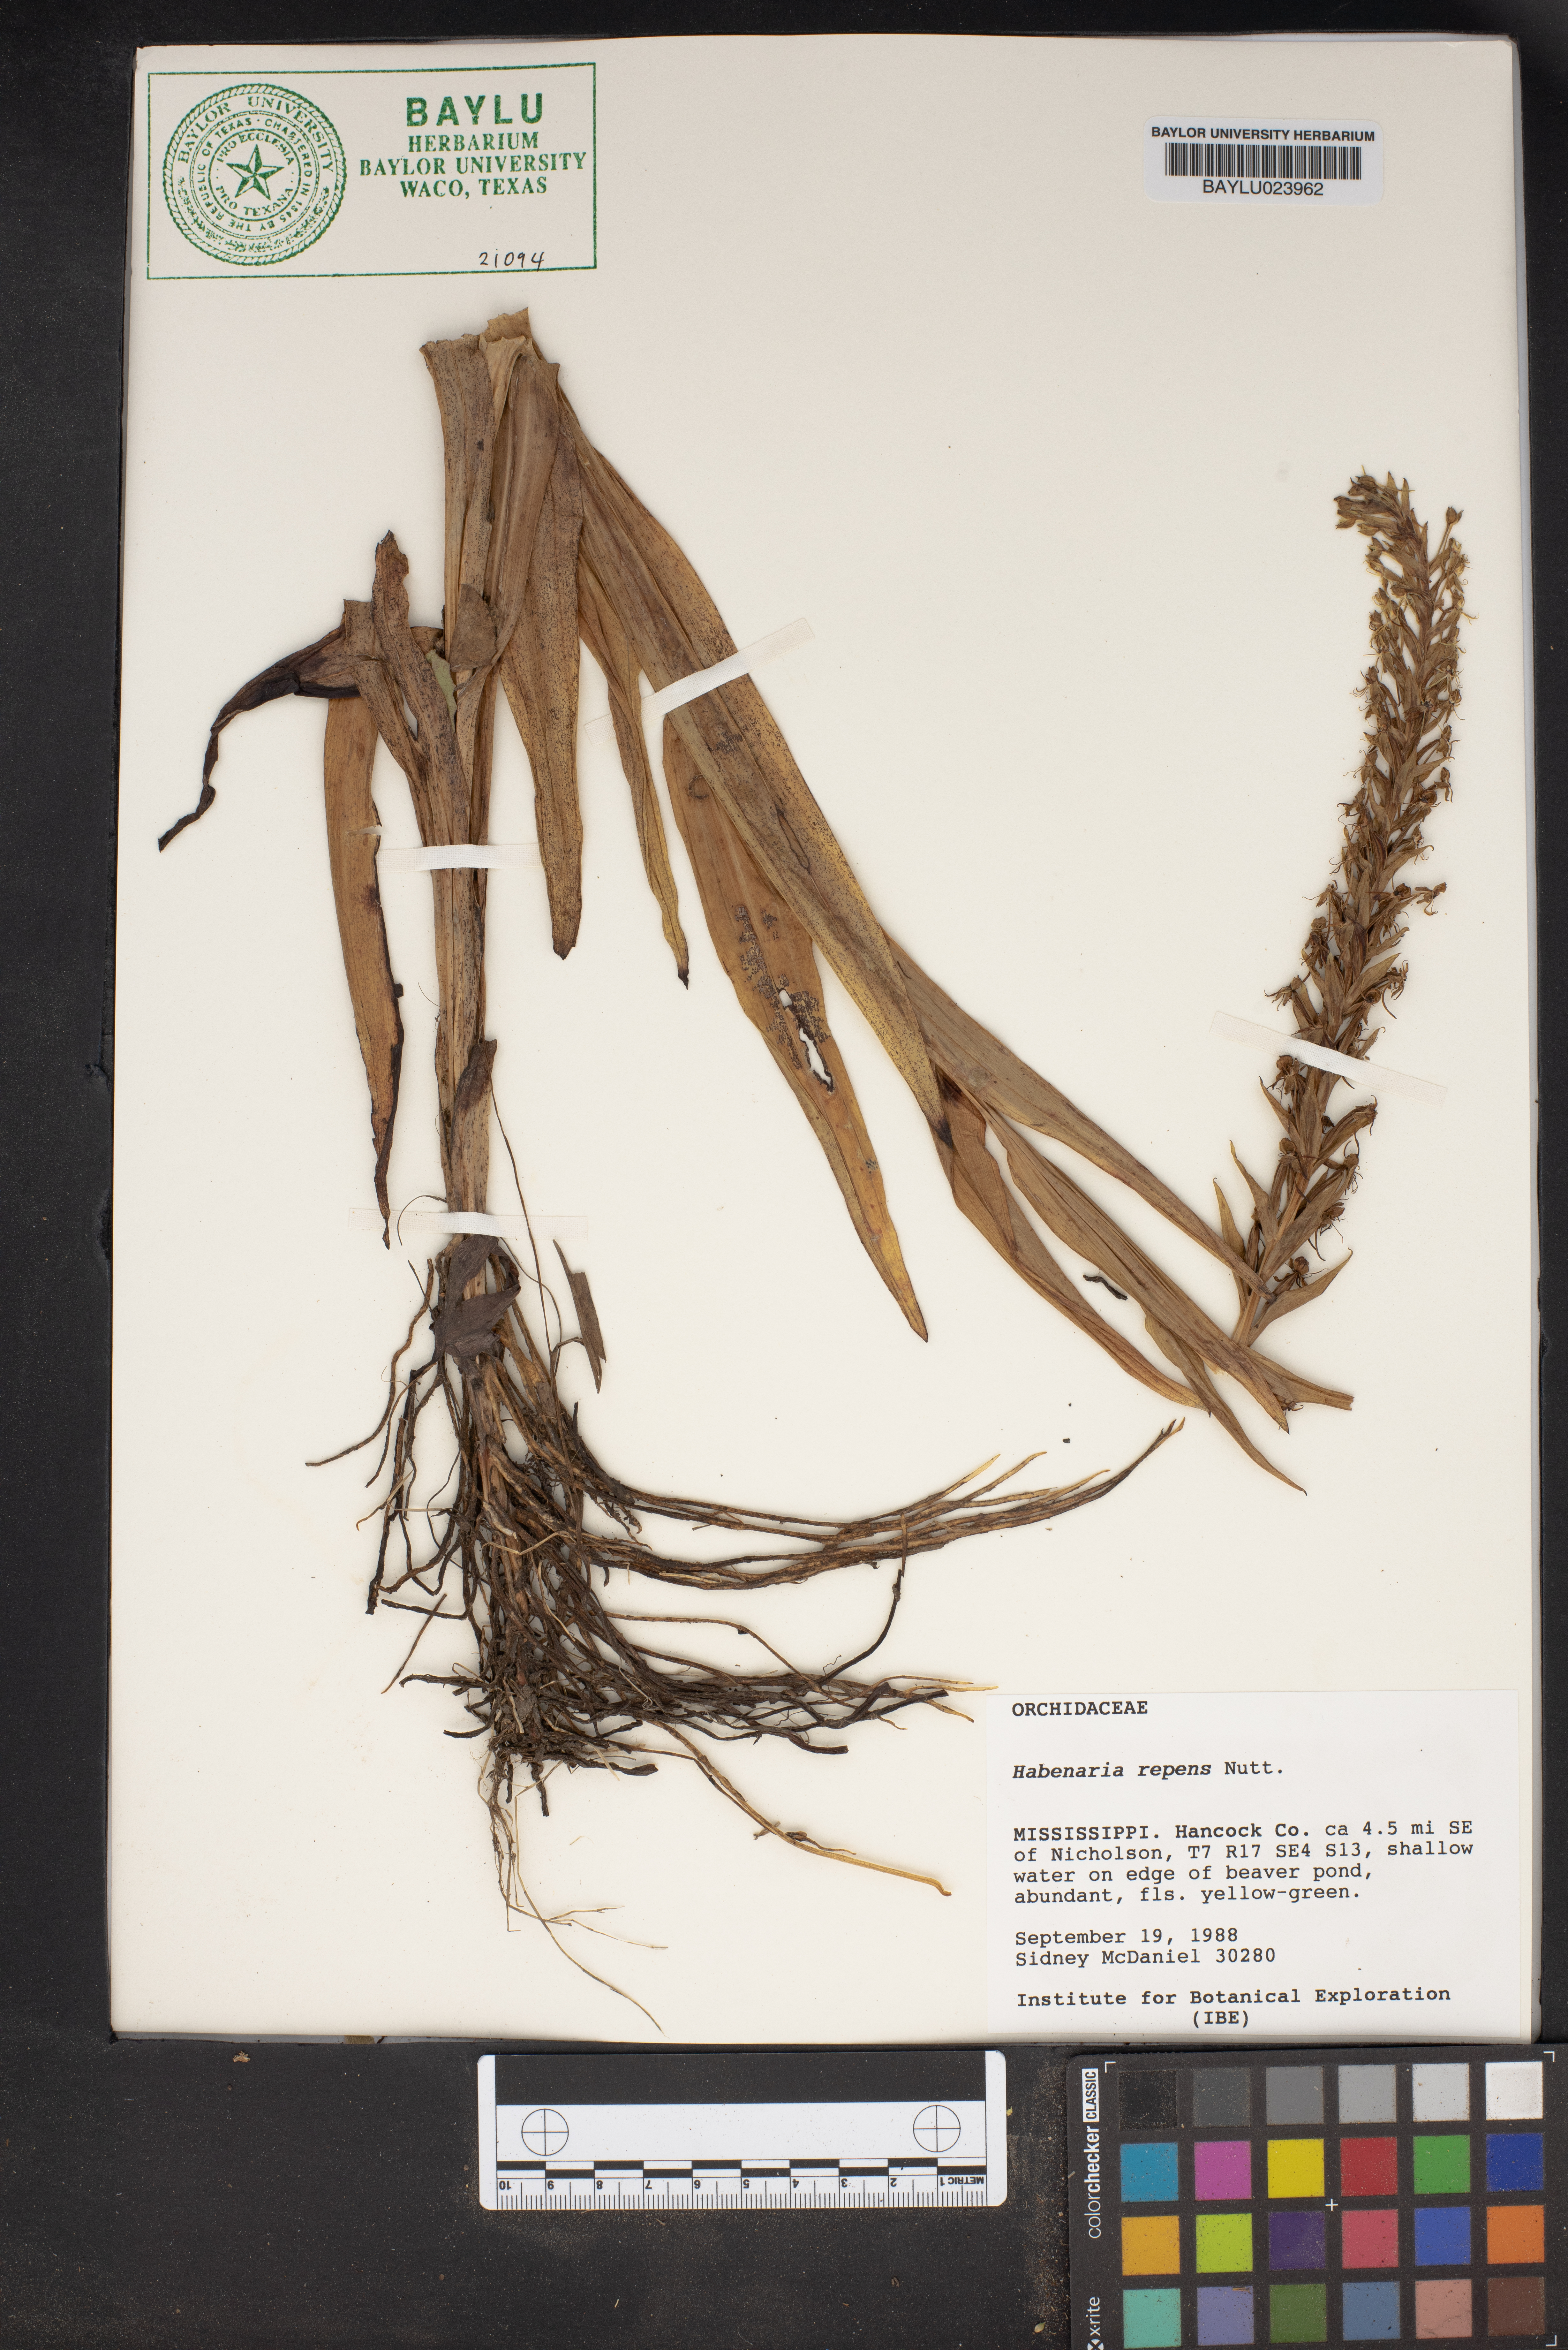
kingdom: Plantae
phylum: Tracheophyta
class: Liliopsida
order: Asparagales
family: Orchidaceae
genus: Habenaria
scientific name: Habenaria repens
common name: Water orchid
